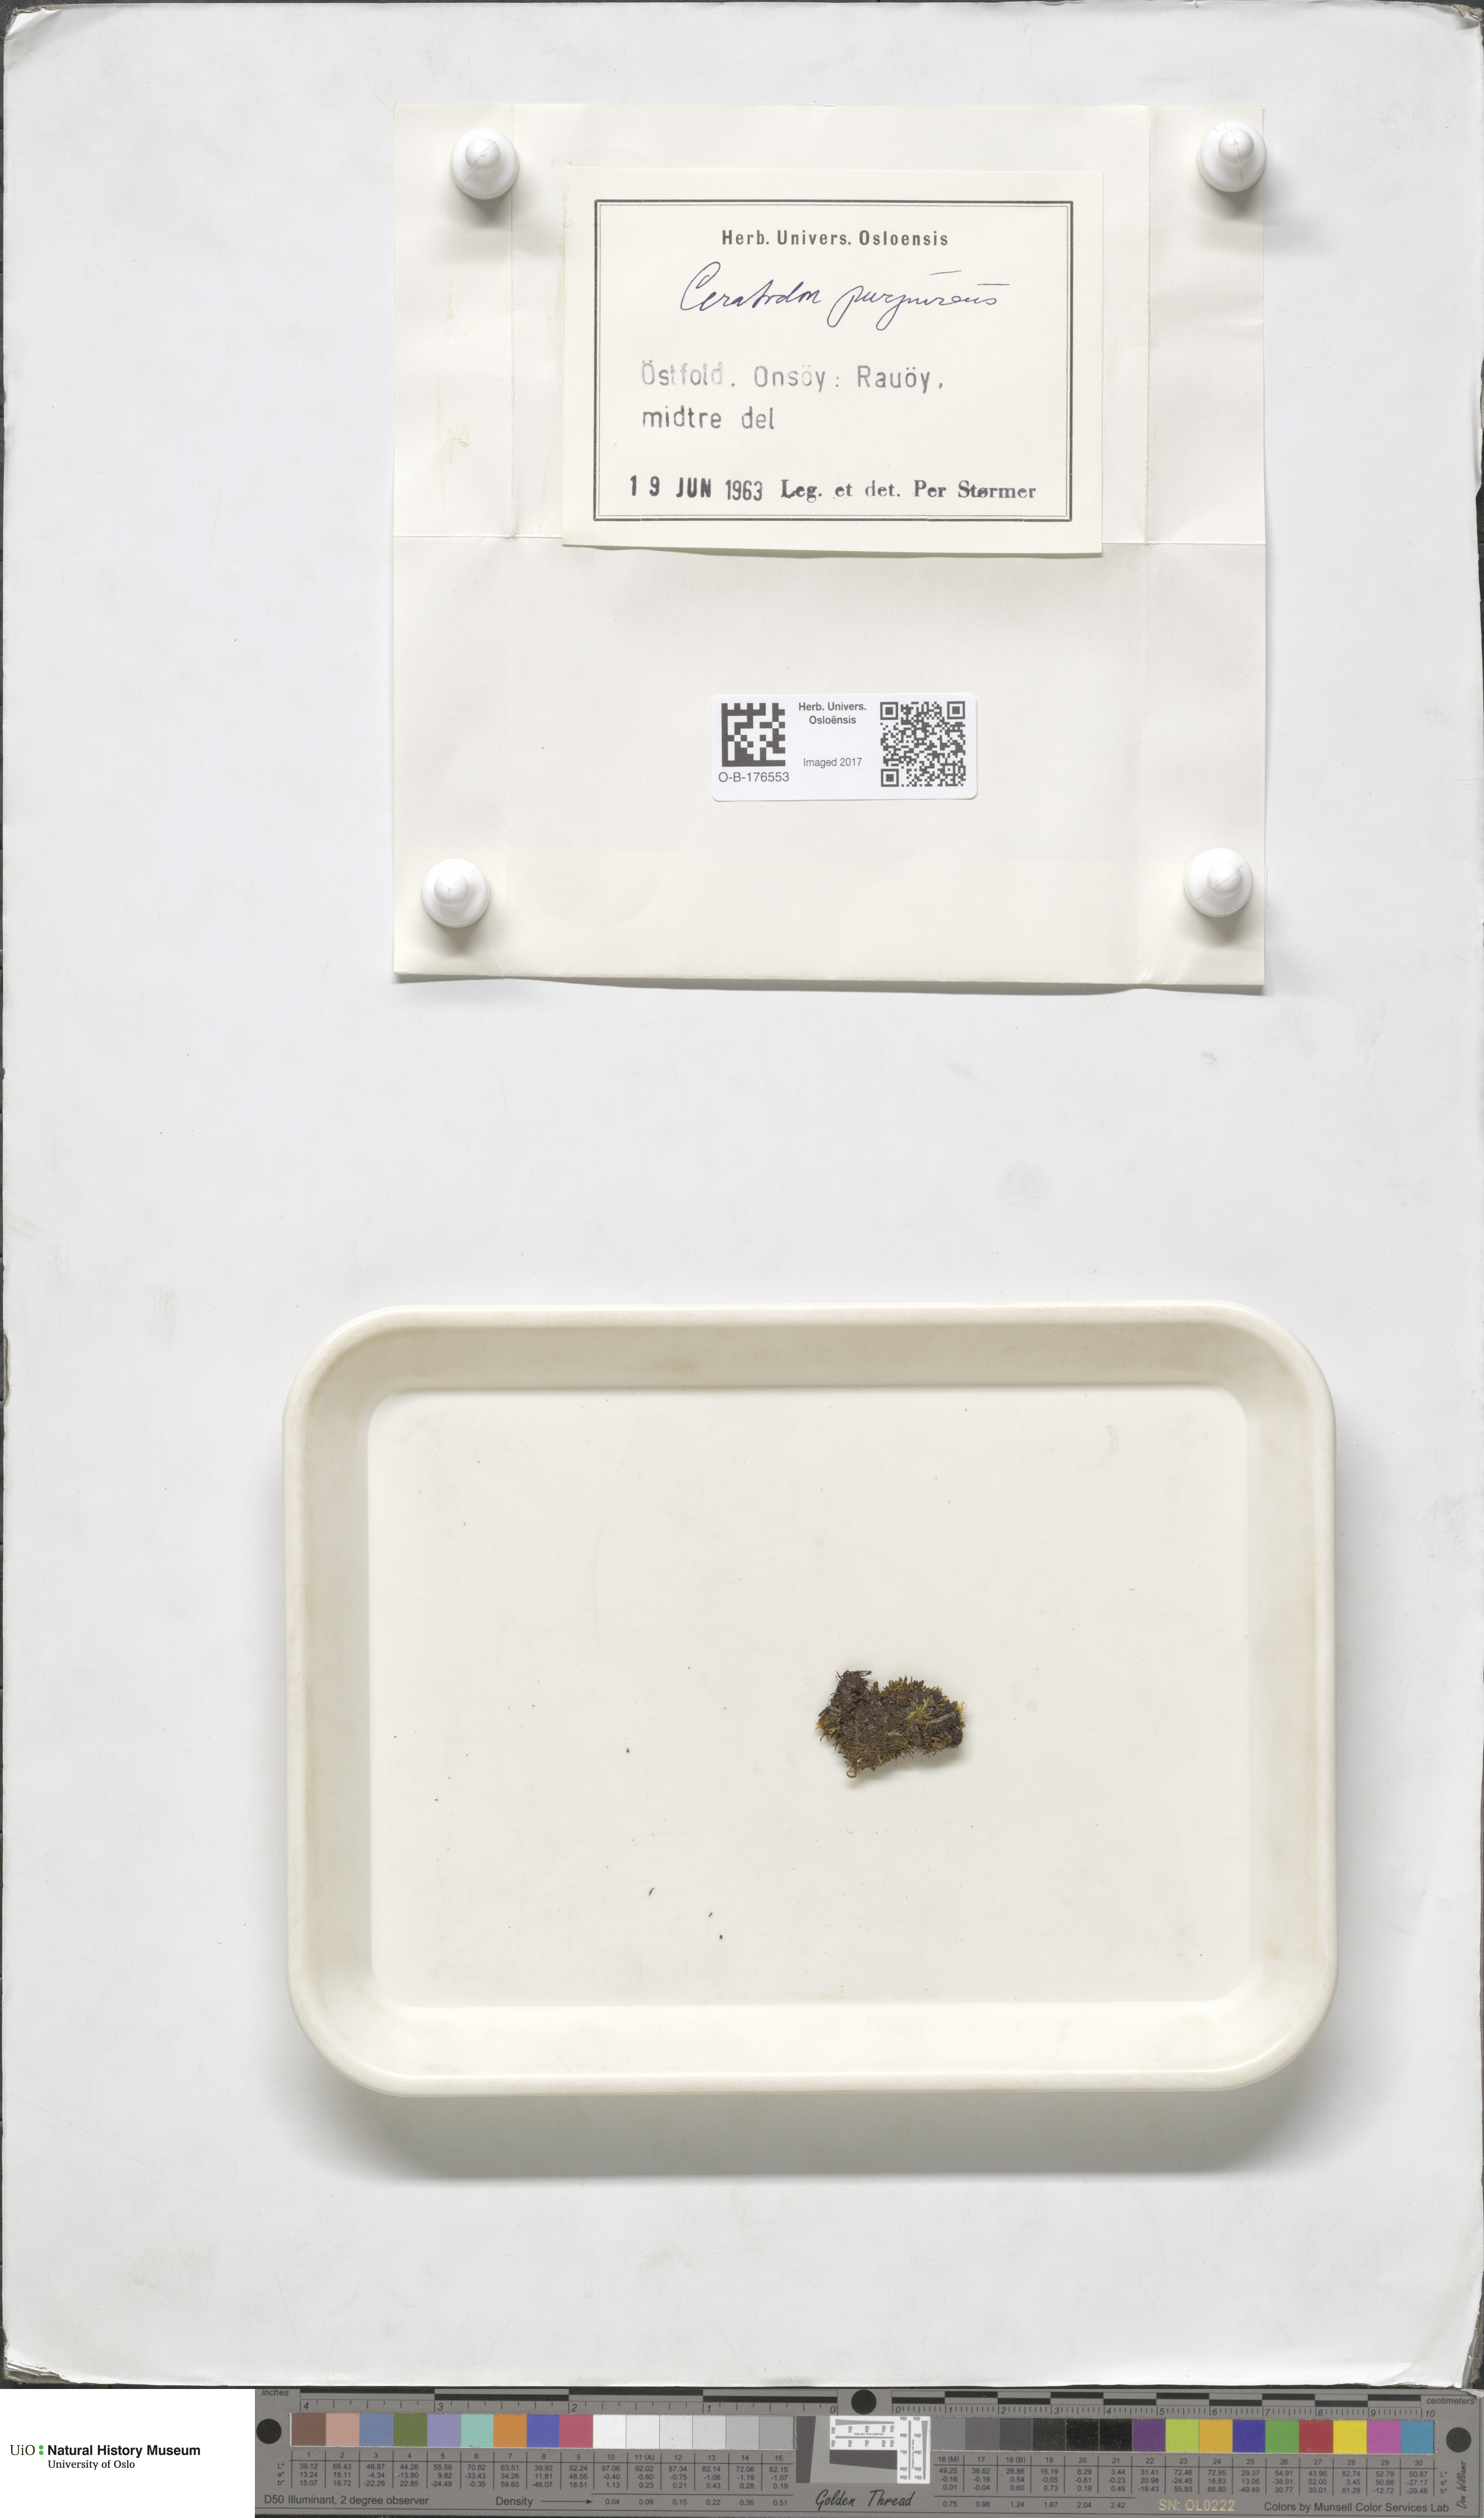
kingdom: Plantae
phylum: Bryophyta
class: Bryopsida
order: Dicranales
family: Ditrichaceae
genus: Ceratodon
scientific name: Ceratodon purpureus
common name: Redshank
